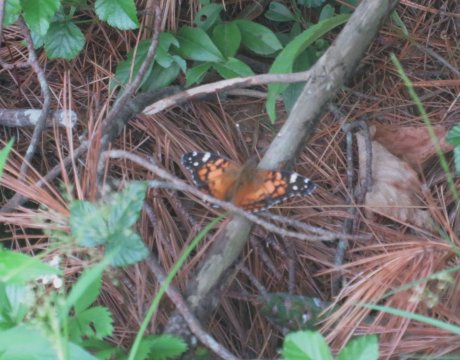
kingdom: Animalia
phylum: Arthropoda
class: Insecta
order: Lepidoptera
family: Nymphalidae
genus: Vanessa
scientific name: Vanessa virginiensis
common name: American Lady
